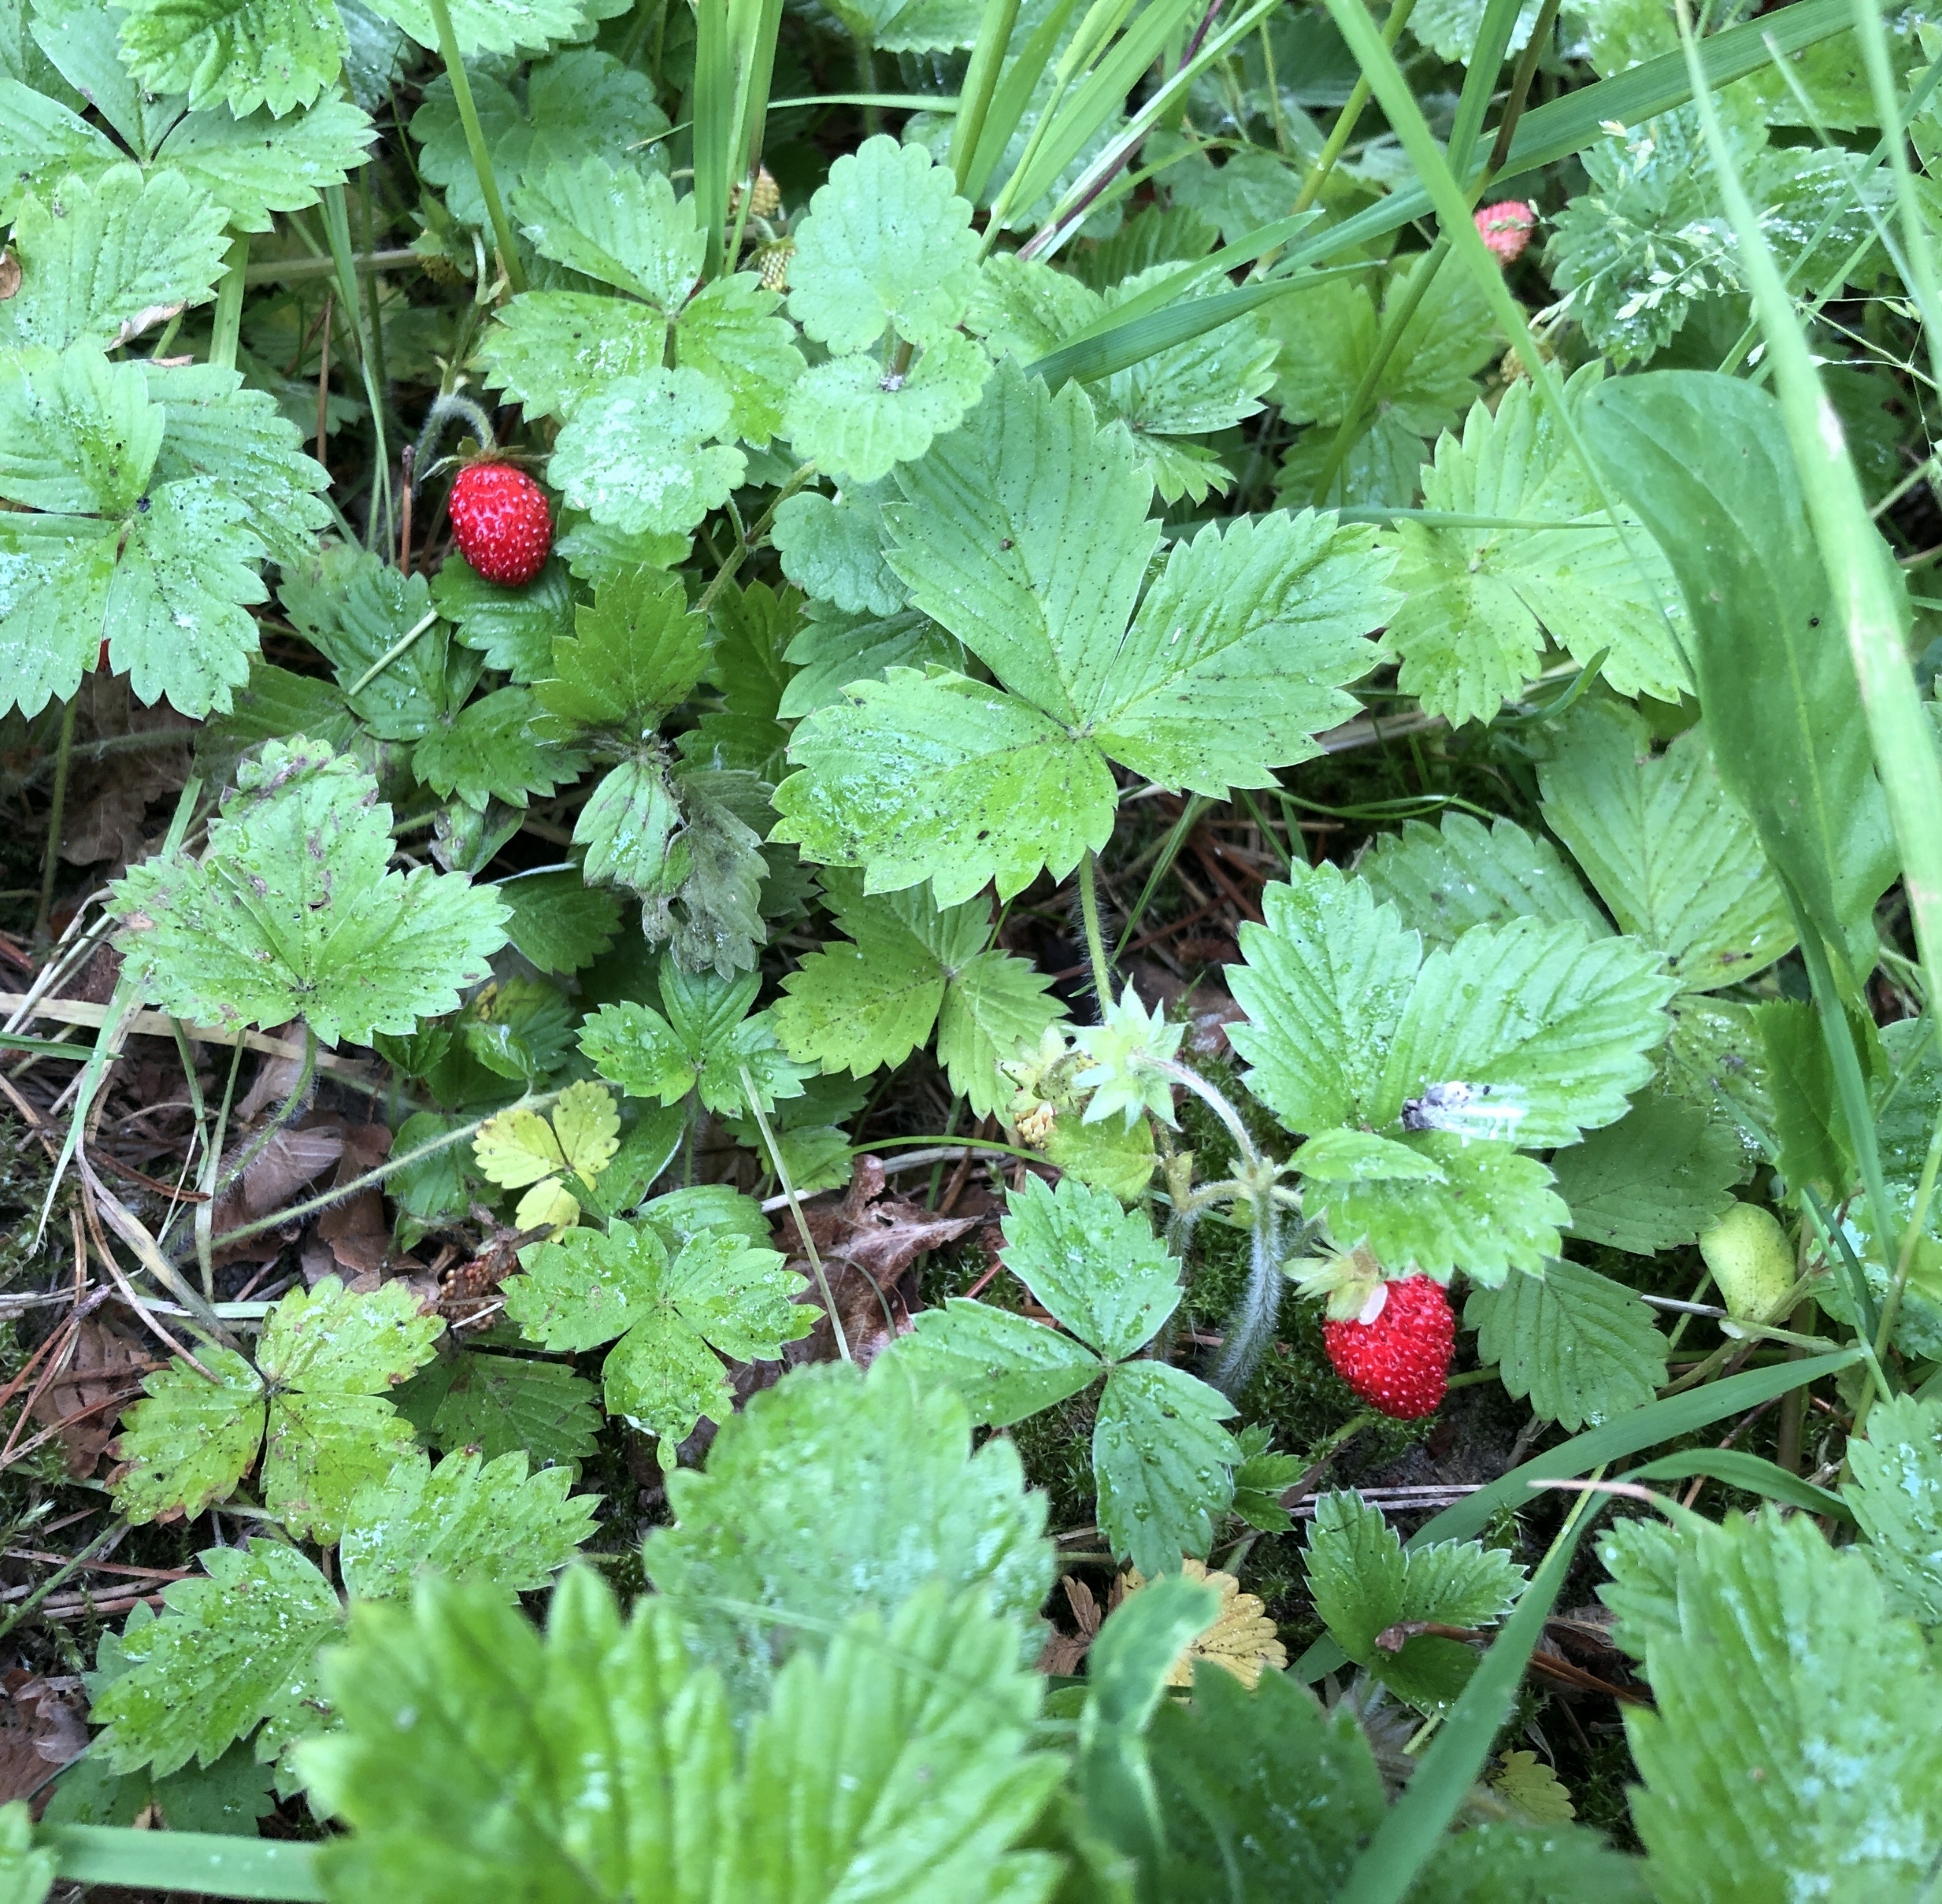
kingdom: Plantae
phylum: Tracheophyta
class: Magnoliopsida
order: Rosales
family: Rosaceae
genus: Fragaria
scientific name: Fragaria vesca
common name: Skov-jordbær
